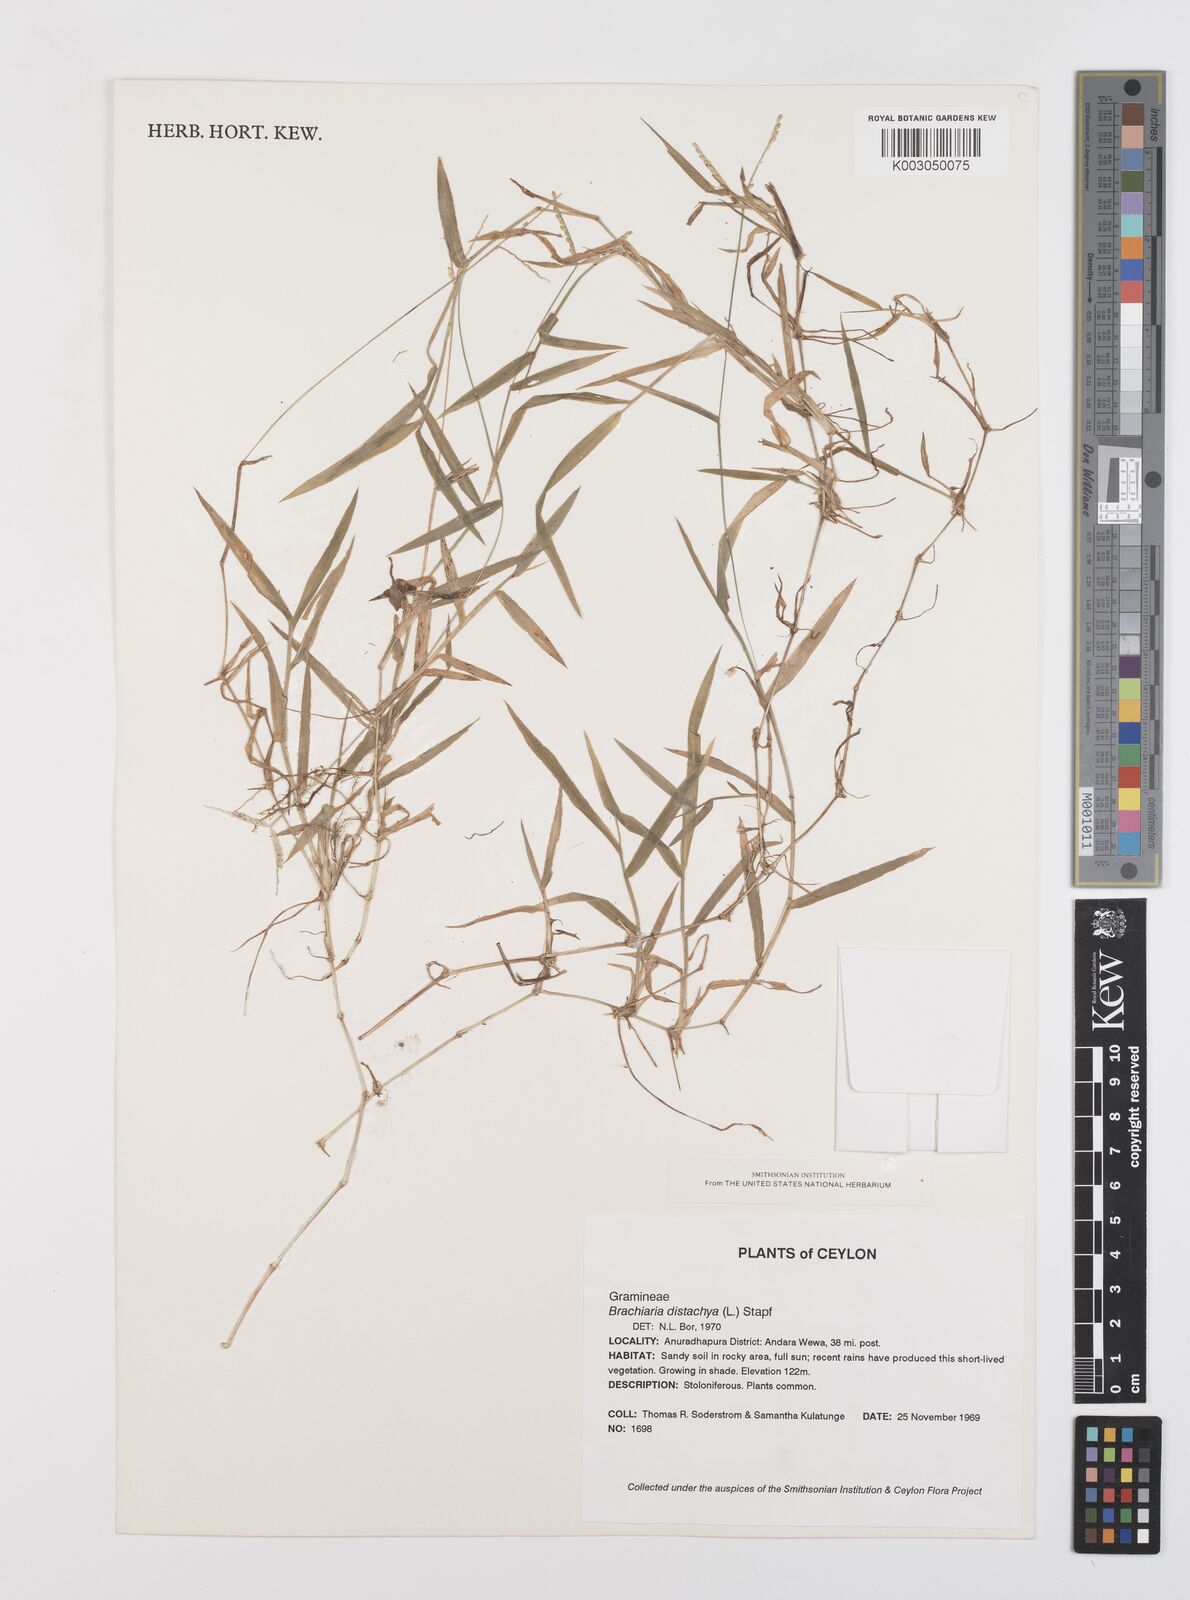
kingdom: Plantae
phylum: Tracheophyta
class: Liliopsida
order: Poales
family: Poaceae
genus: Urochloa
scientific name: Urochloa distachyos
